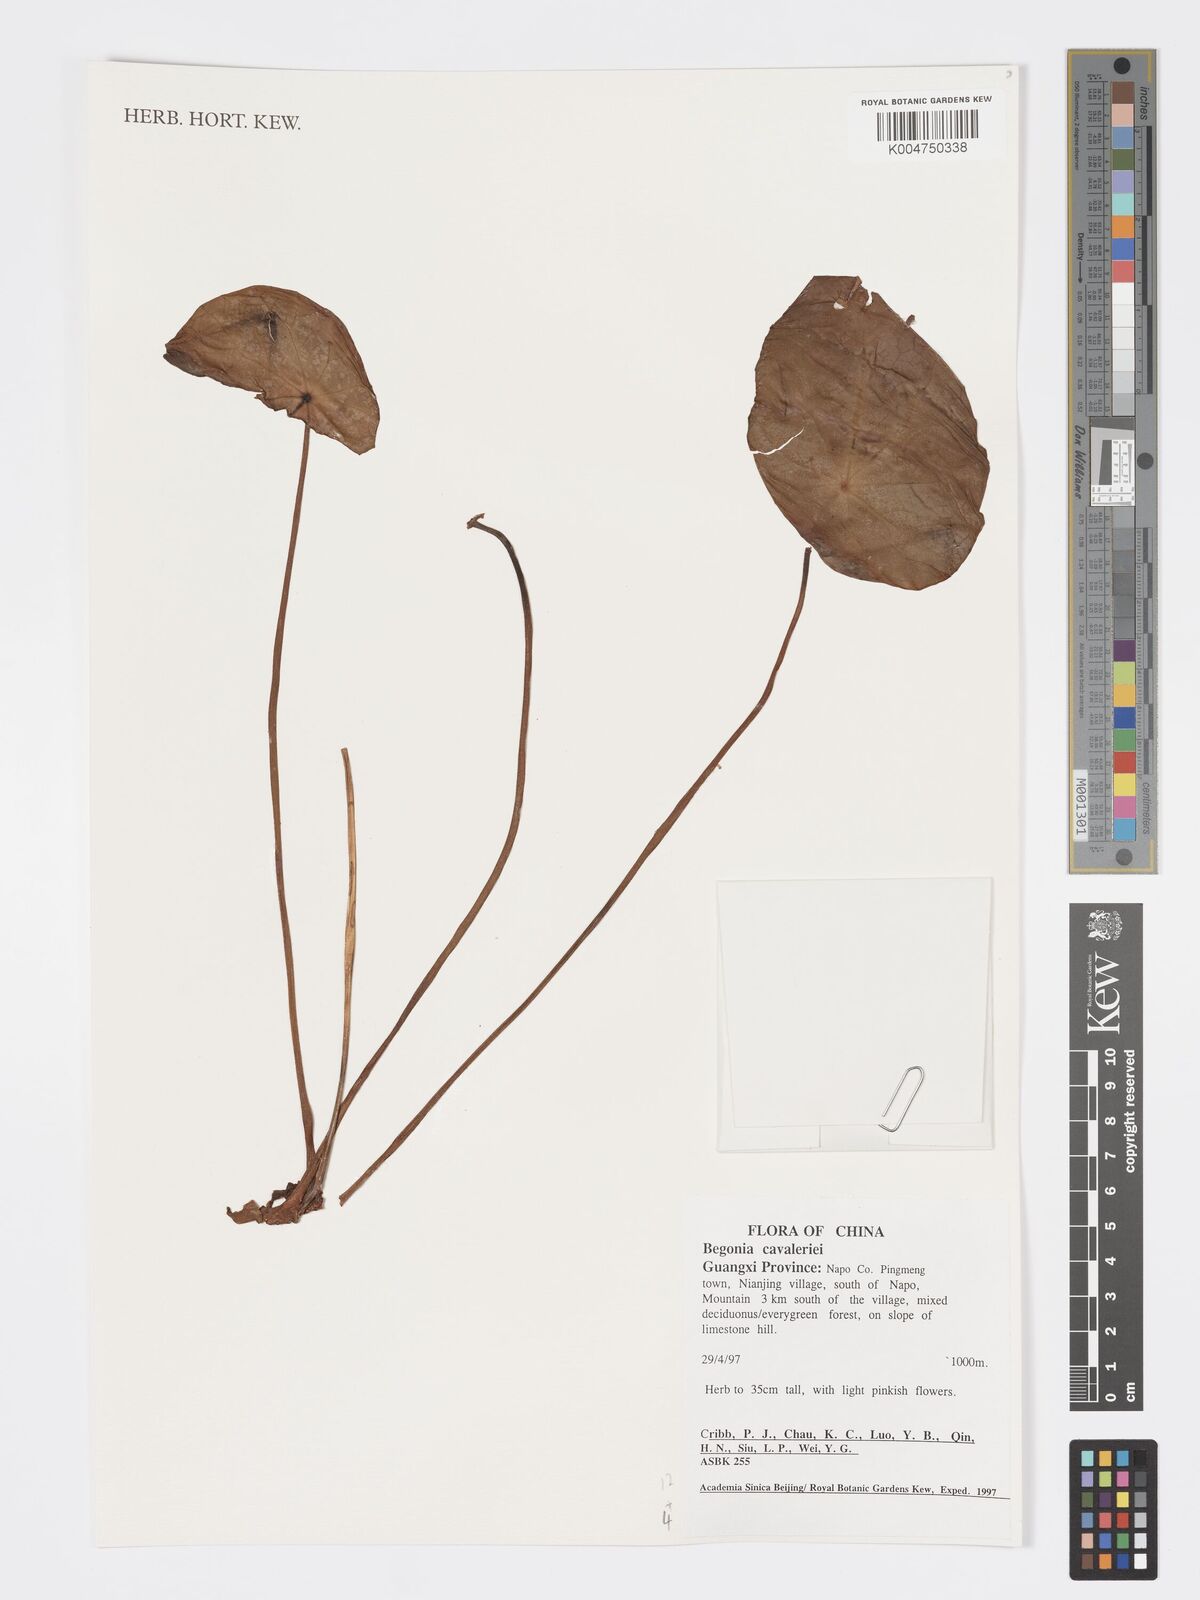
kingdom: Plantae
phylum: Tracheophyta
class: Magnoliopsida
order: Cucurbitales
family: Begoniaceae
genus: Begonia
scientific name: Begonia cavaleriei
